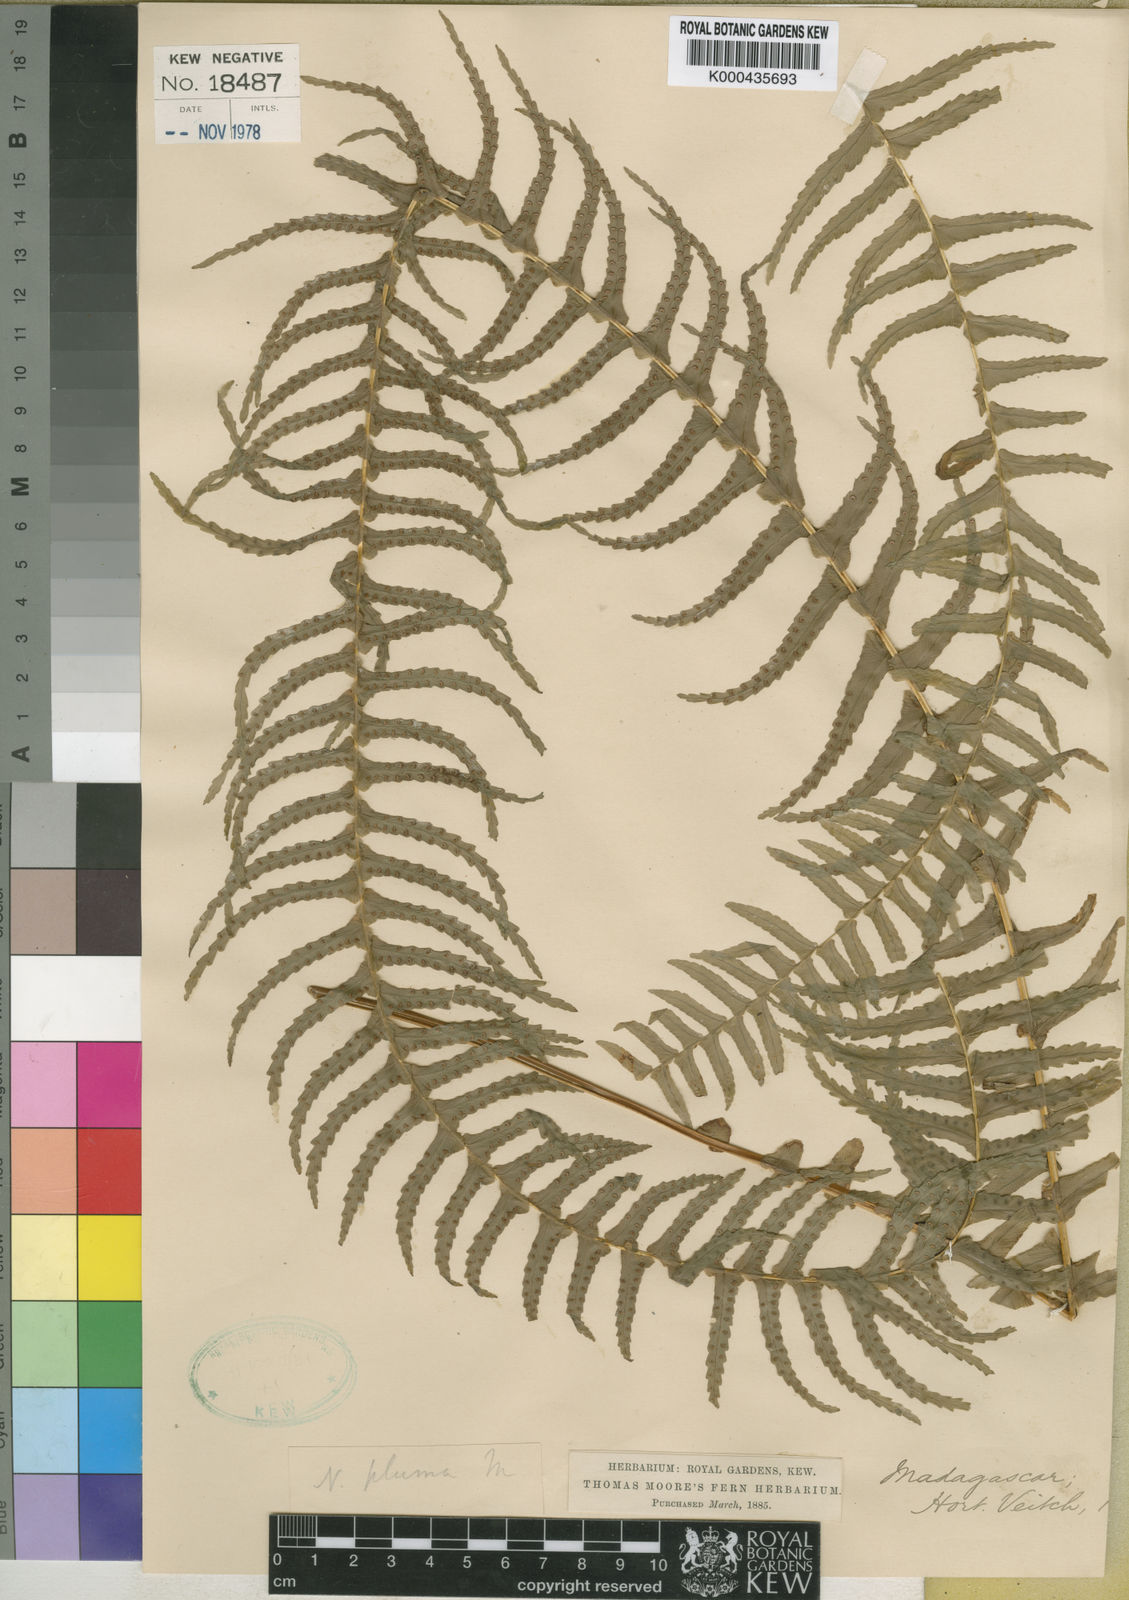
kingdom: Plantae
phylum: Tracheophyta
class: Polypodiopsida
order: Polypodiales
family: Nephrolepidaceae
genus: Nephrolepis
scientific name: Nephrolepis undulata
